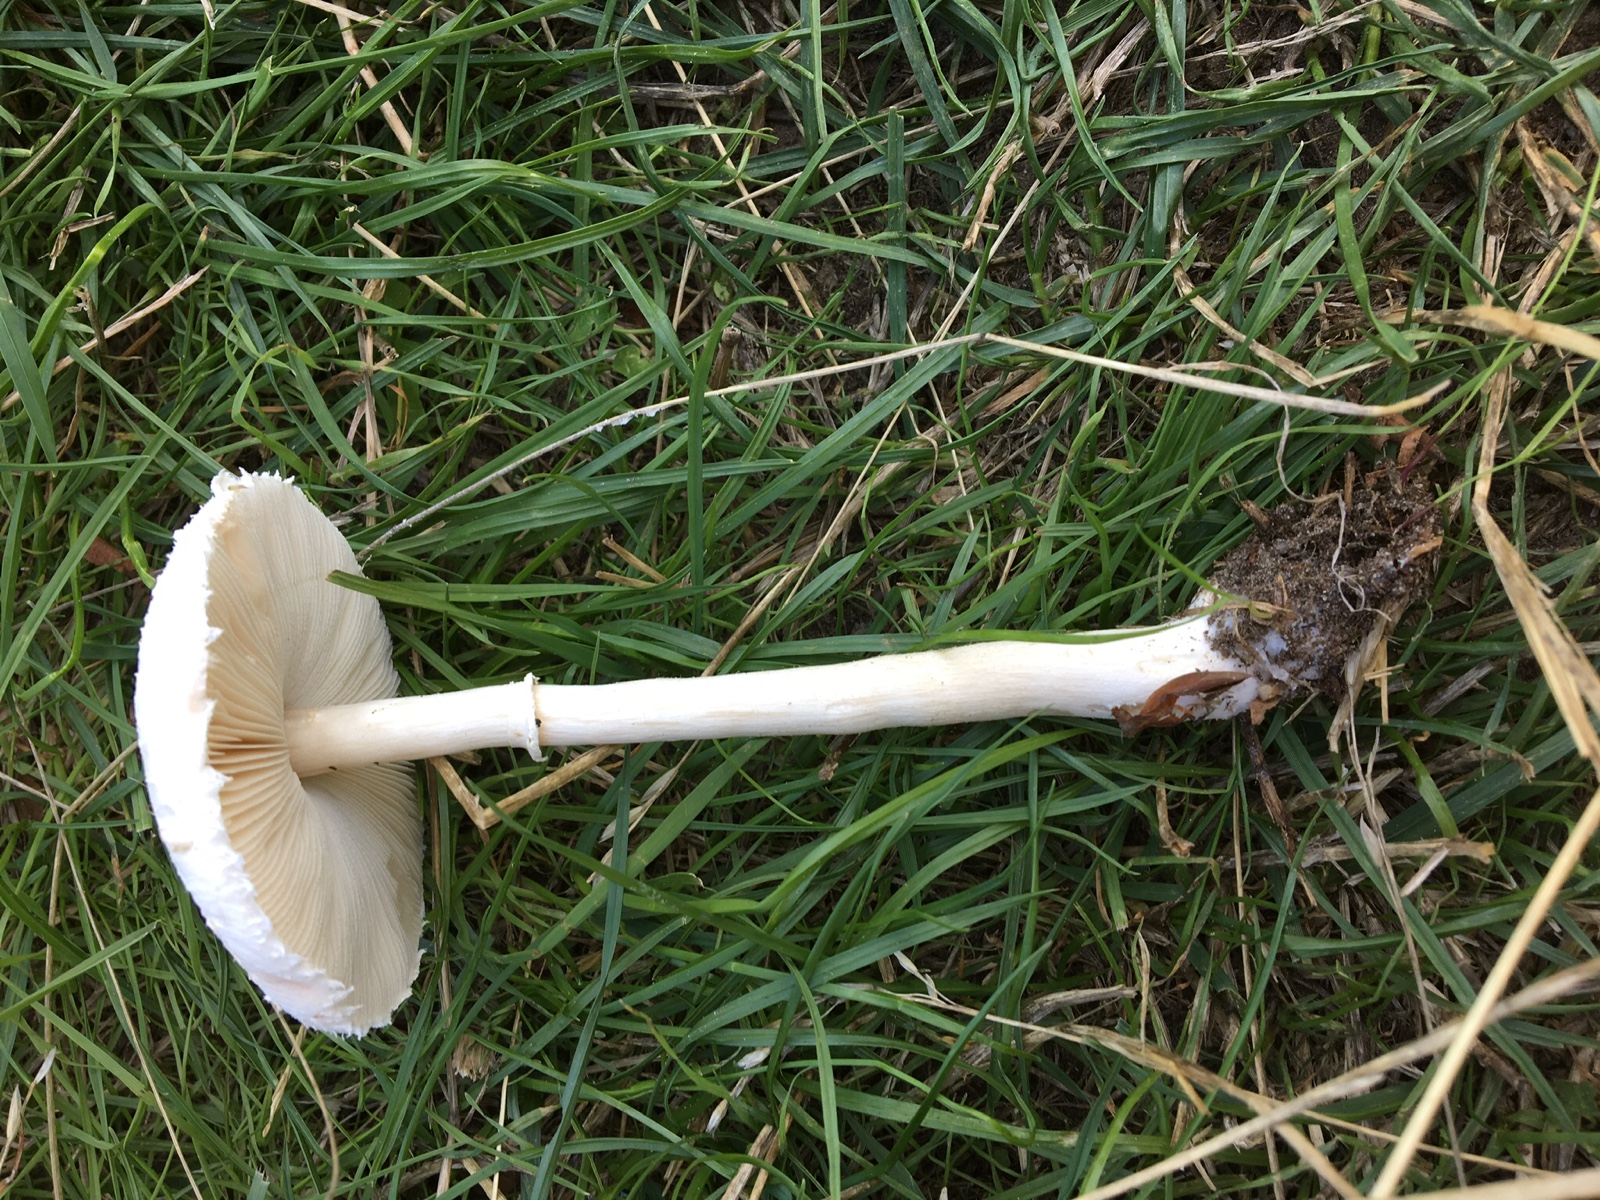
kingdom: Fungi
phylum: Basidiomycota
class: Agaricomycetes
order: Agaricales
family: Agaricaceae
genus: Macrolepiota
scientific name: Macrolepiota excoriata
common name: mark-kæmpeparasolhat
